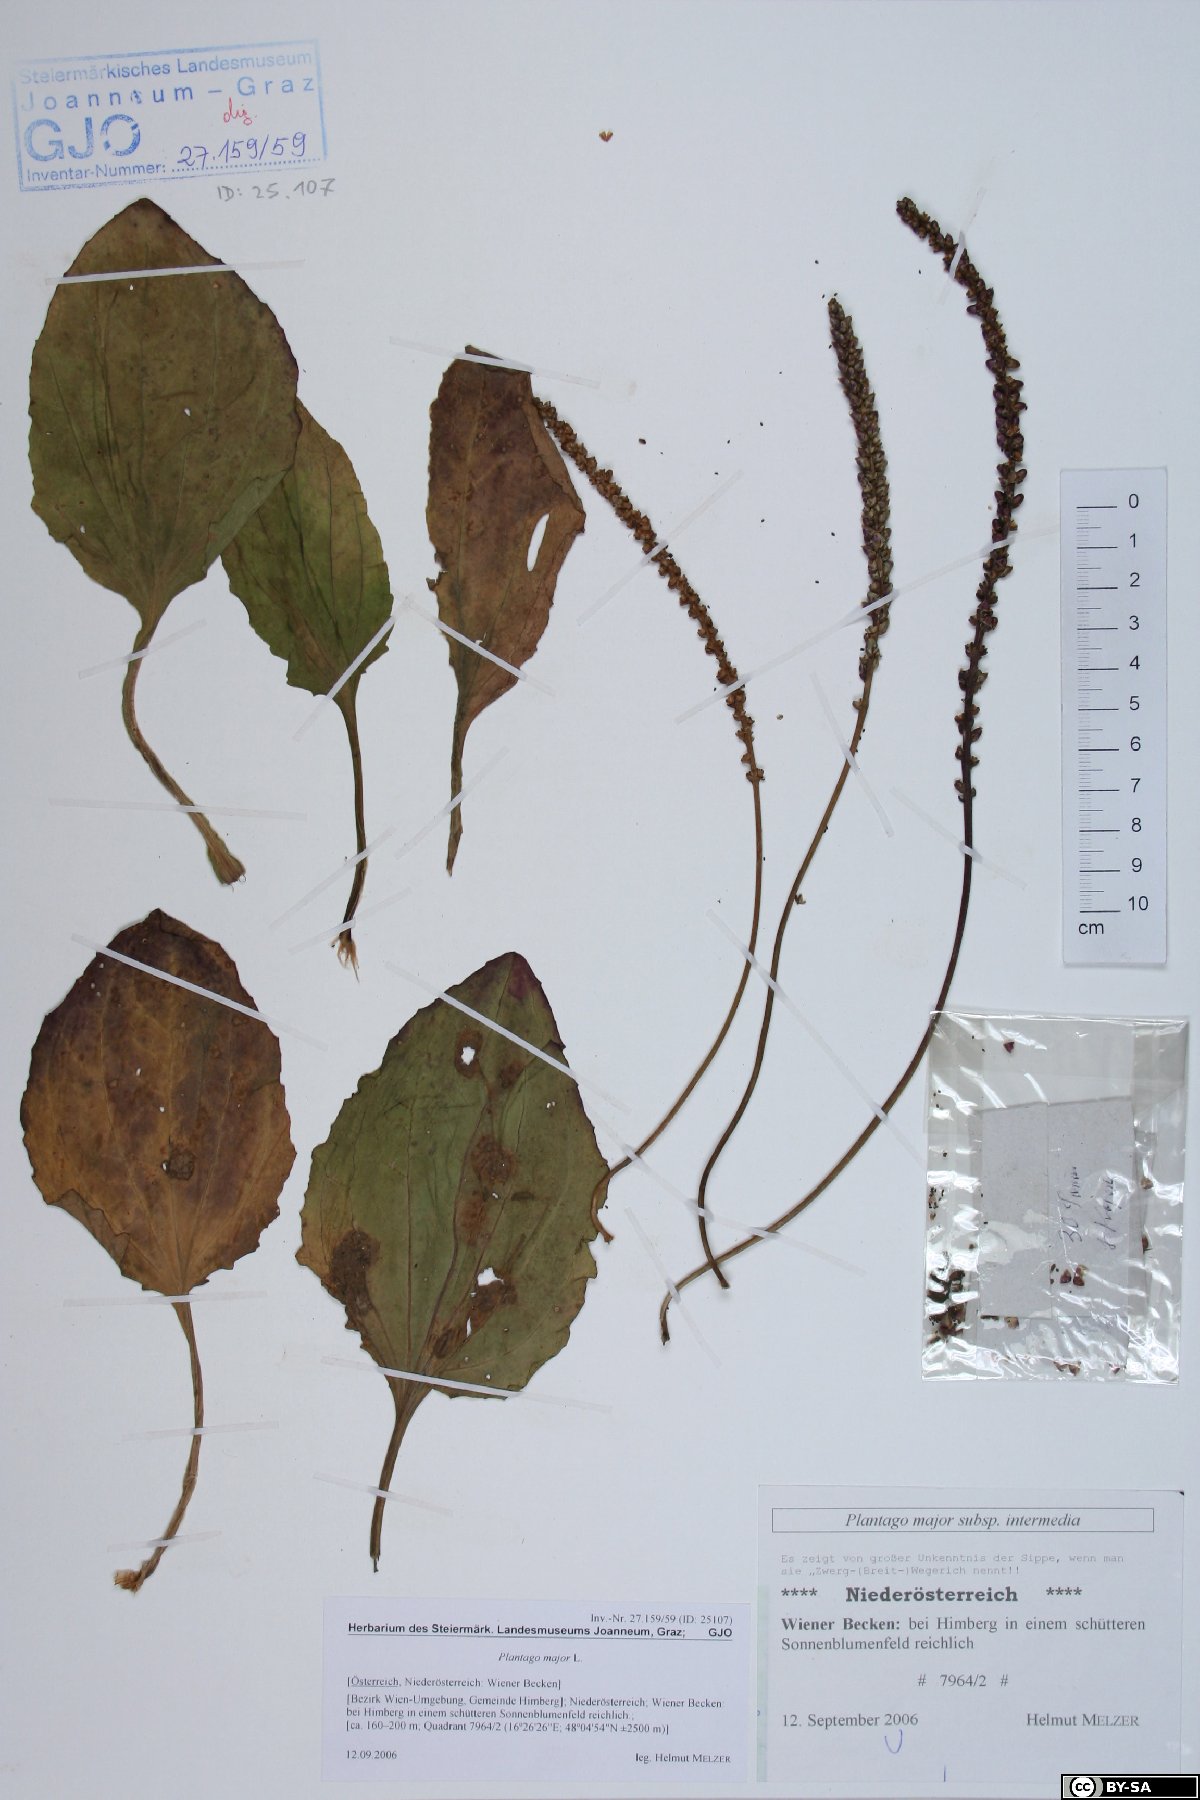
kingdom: Plantae
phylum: Tracheophyta
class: Magnoliopsida
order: Lamiales
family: Plantaginaceae
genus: Plantago
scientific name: Plantago uliginosa
